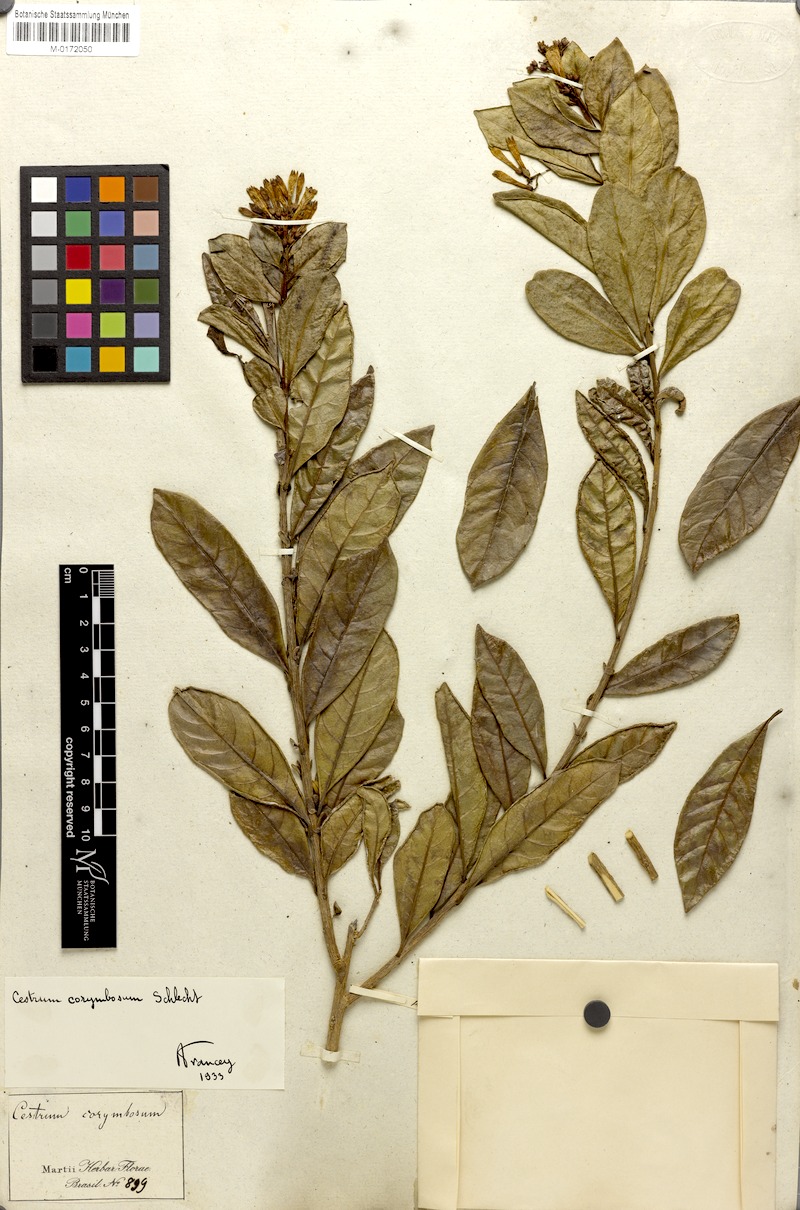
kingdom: Plantae
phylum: Tracheophyta
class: Magnoliopsida
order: Solanales
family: Solanaceae
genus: Cestrum
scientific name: Cestrum euanthes
